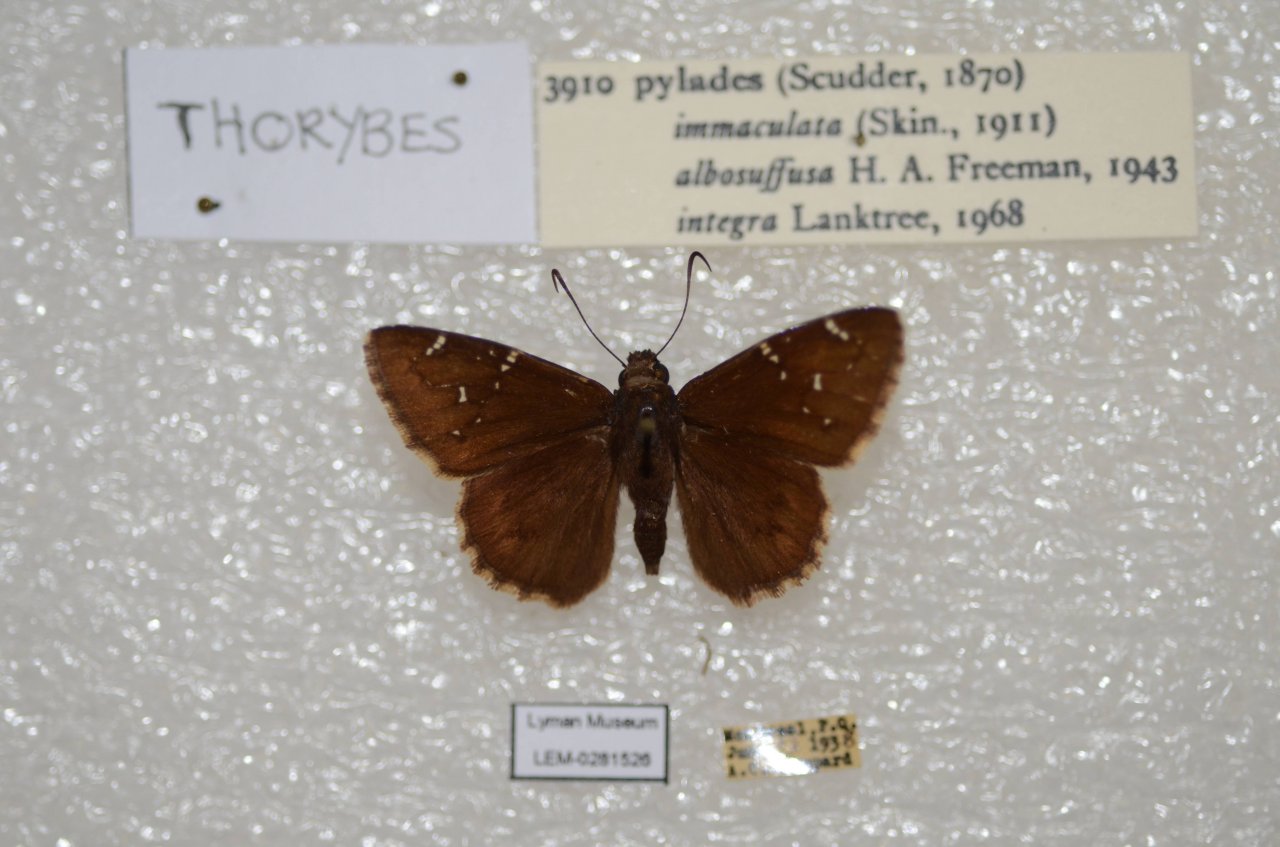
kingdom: Animalia
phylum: Arthropoda
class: Insecta
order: Lepidoptera
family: Hesperiidae
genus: Autochton
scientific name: Autochton
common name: Northern Cloudywing
